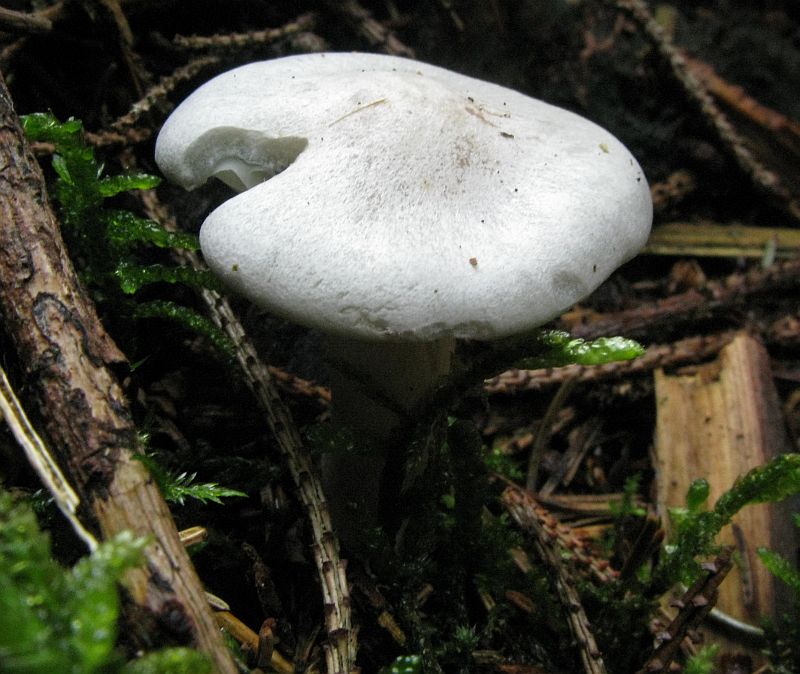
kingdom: Fungi
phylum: Basidiomycota
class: Agaricomycetes
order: Agaricales
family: Tricholomataceae
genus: Clitocybe
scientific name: Clitocybe odora
